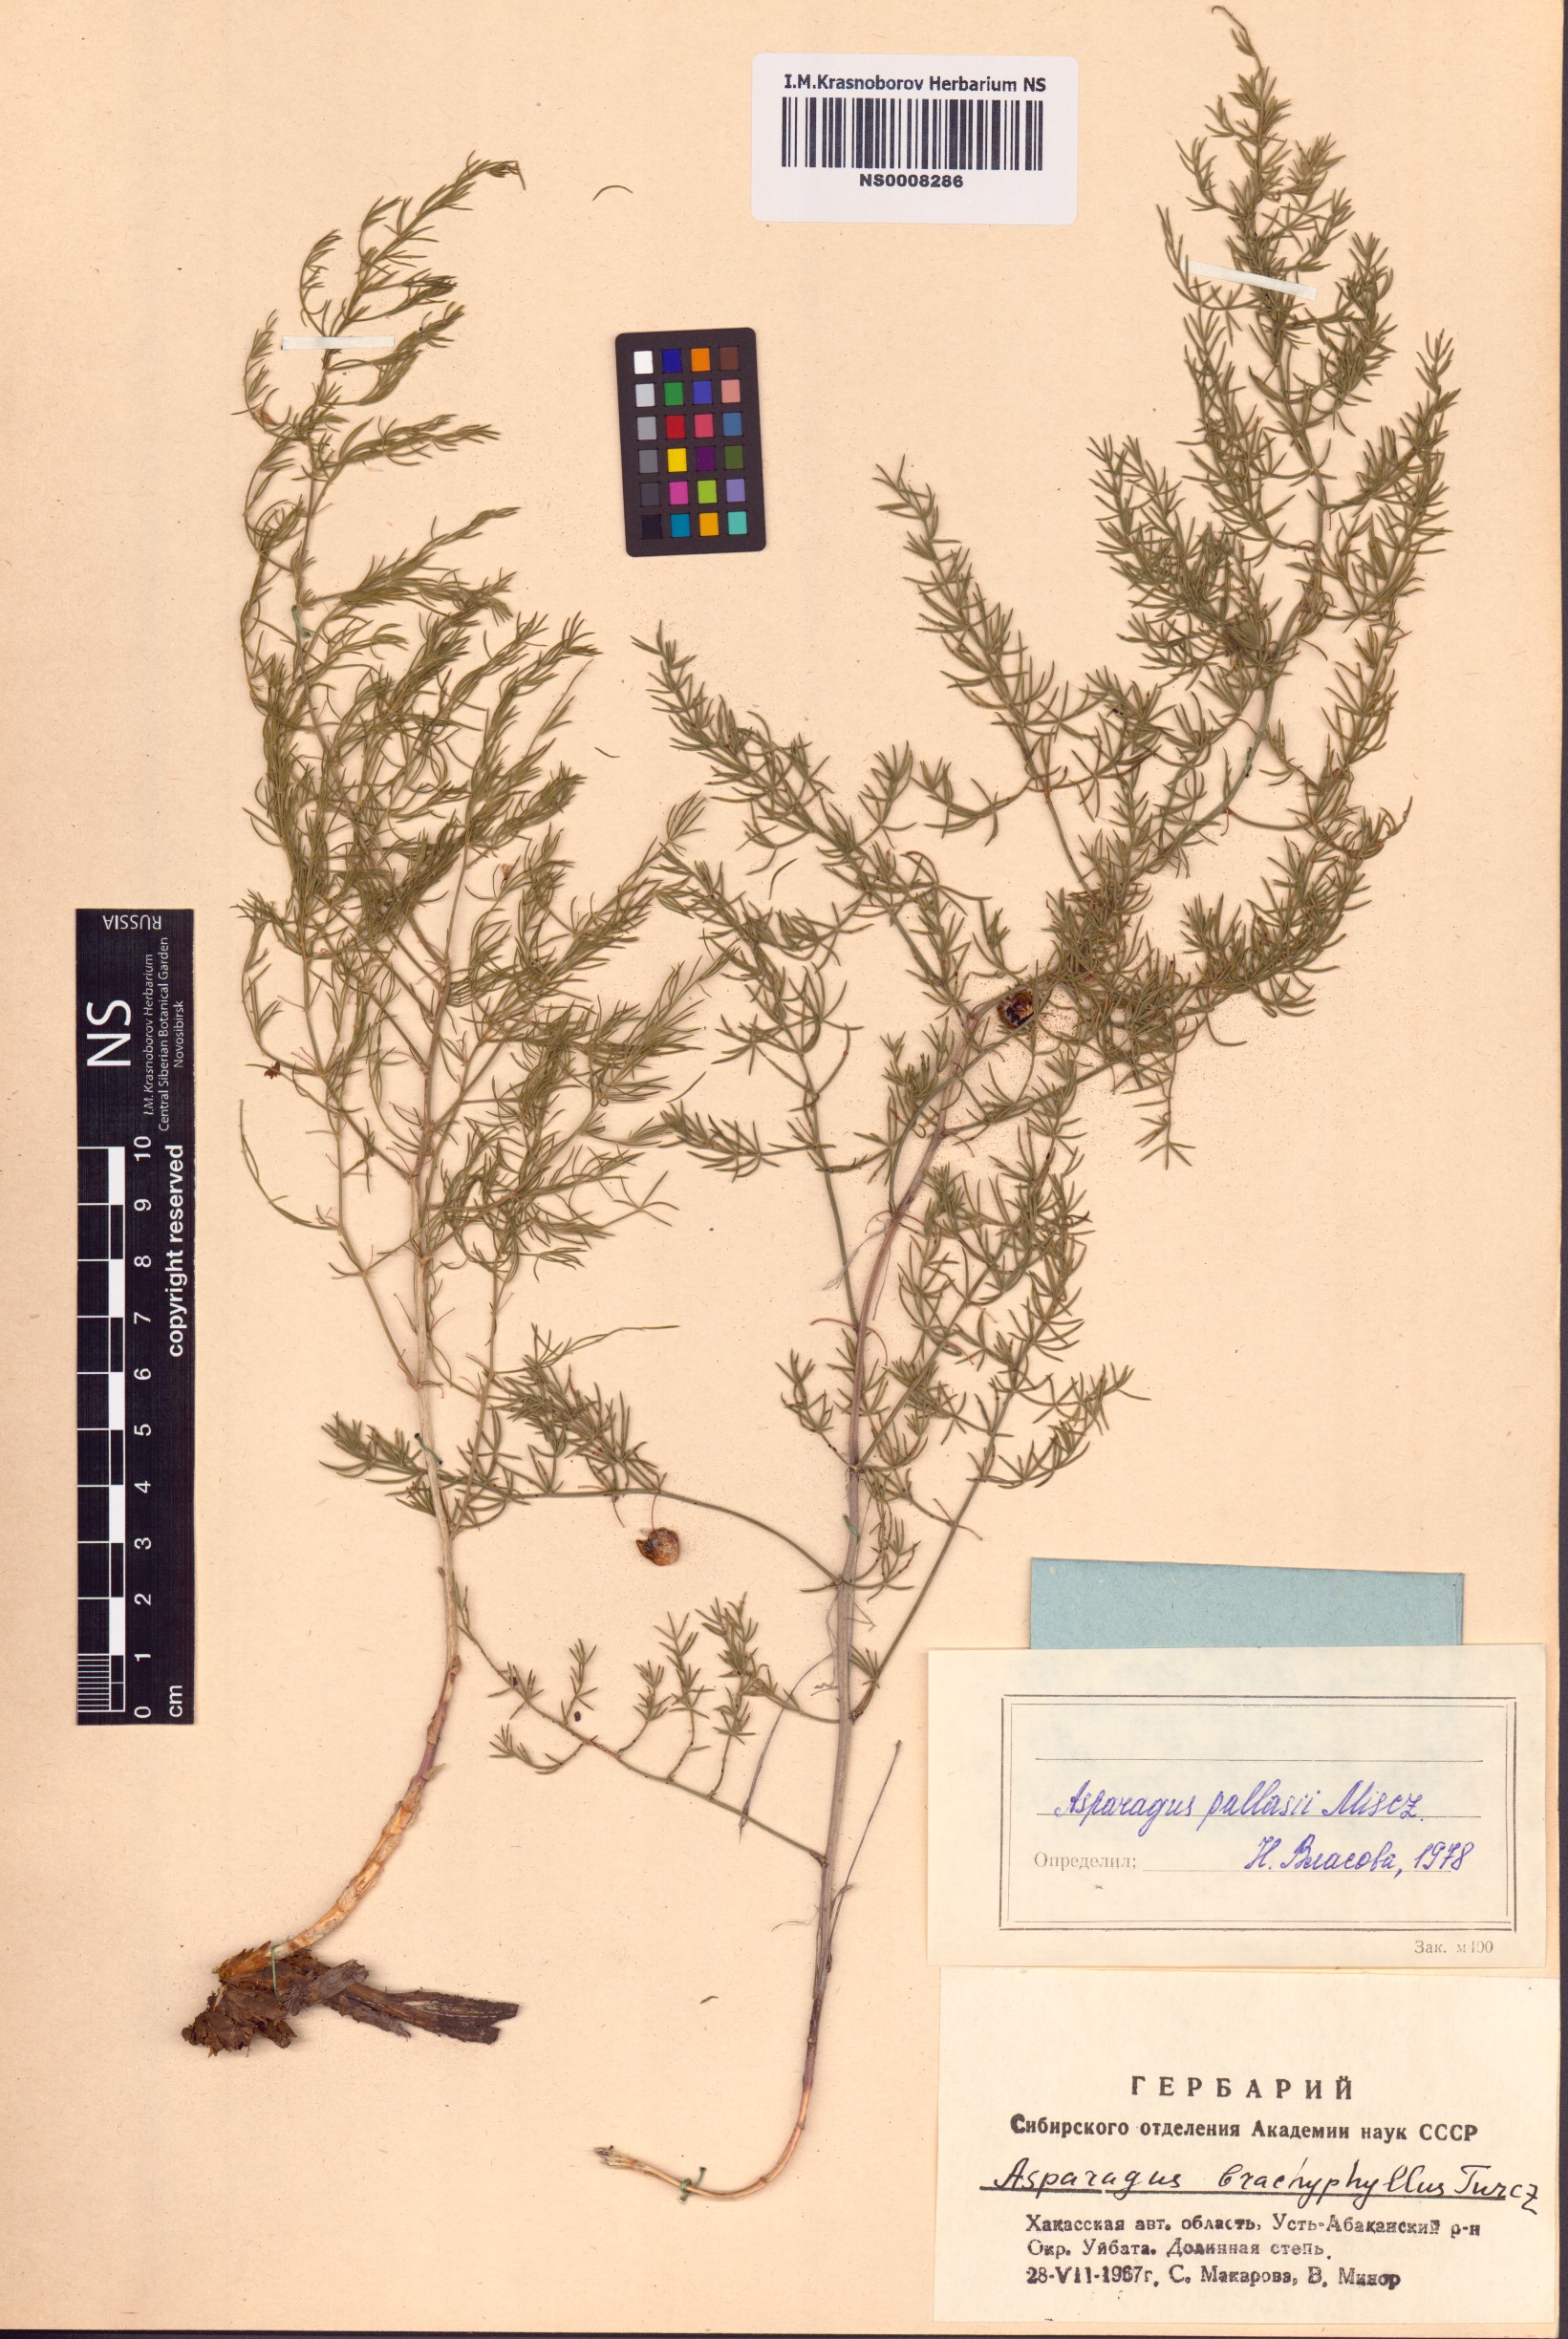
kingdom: Plantae
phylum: Tracheophyta
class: Liliopsida
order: Asparagales
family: Asparagaceae
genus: Asparagus
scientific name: Asparagus pallasii
